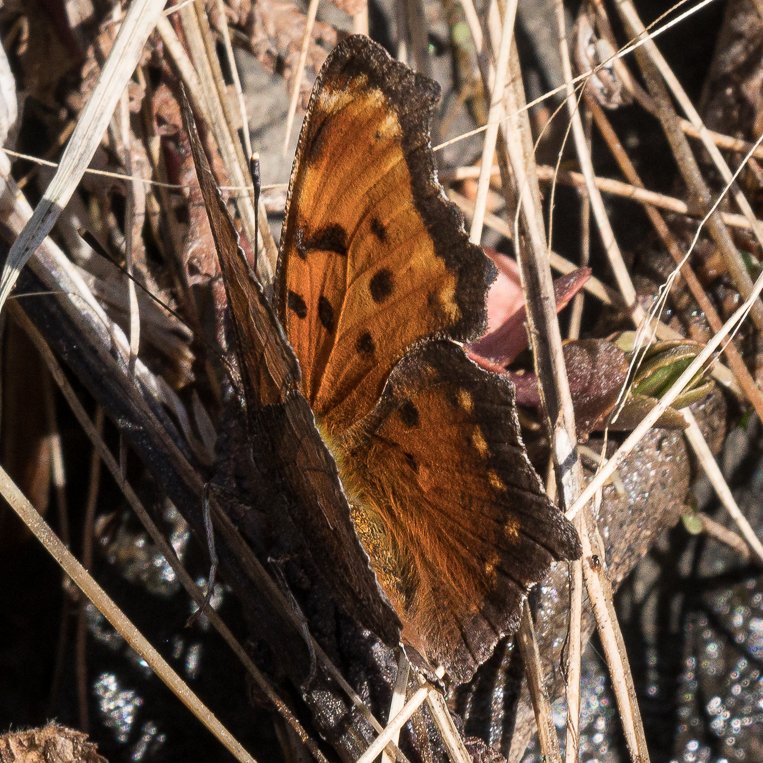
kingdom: Animalia
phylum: Arthropoda
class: Insecta
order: Lepidoptera
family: Nymphalidae
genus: Polygonia
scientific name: Polygonia progne
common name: Gray Comma
